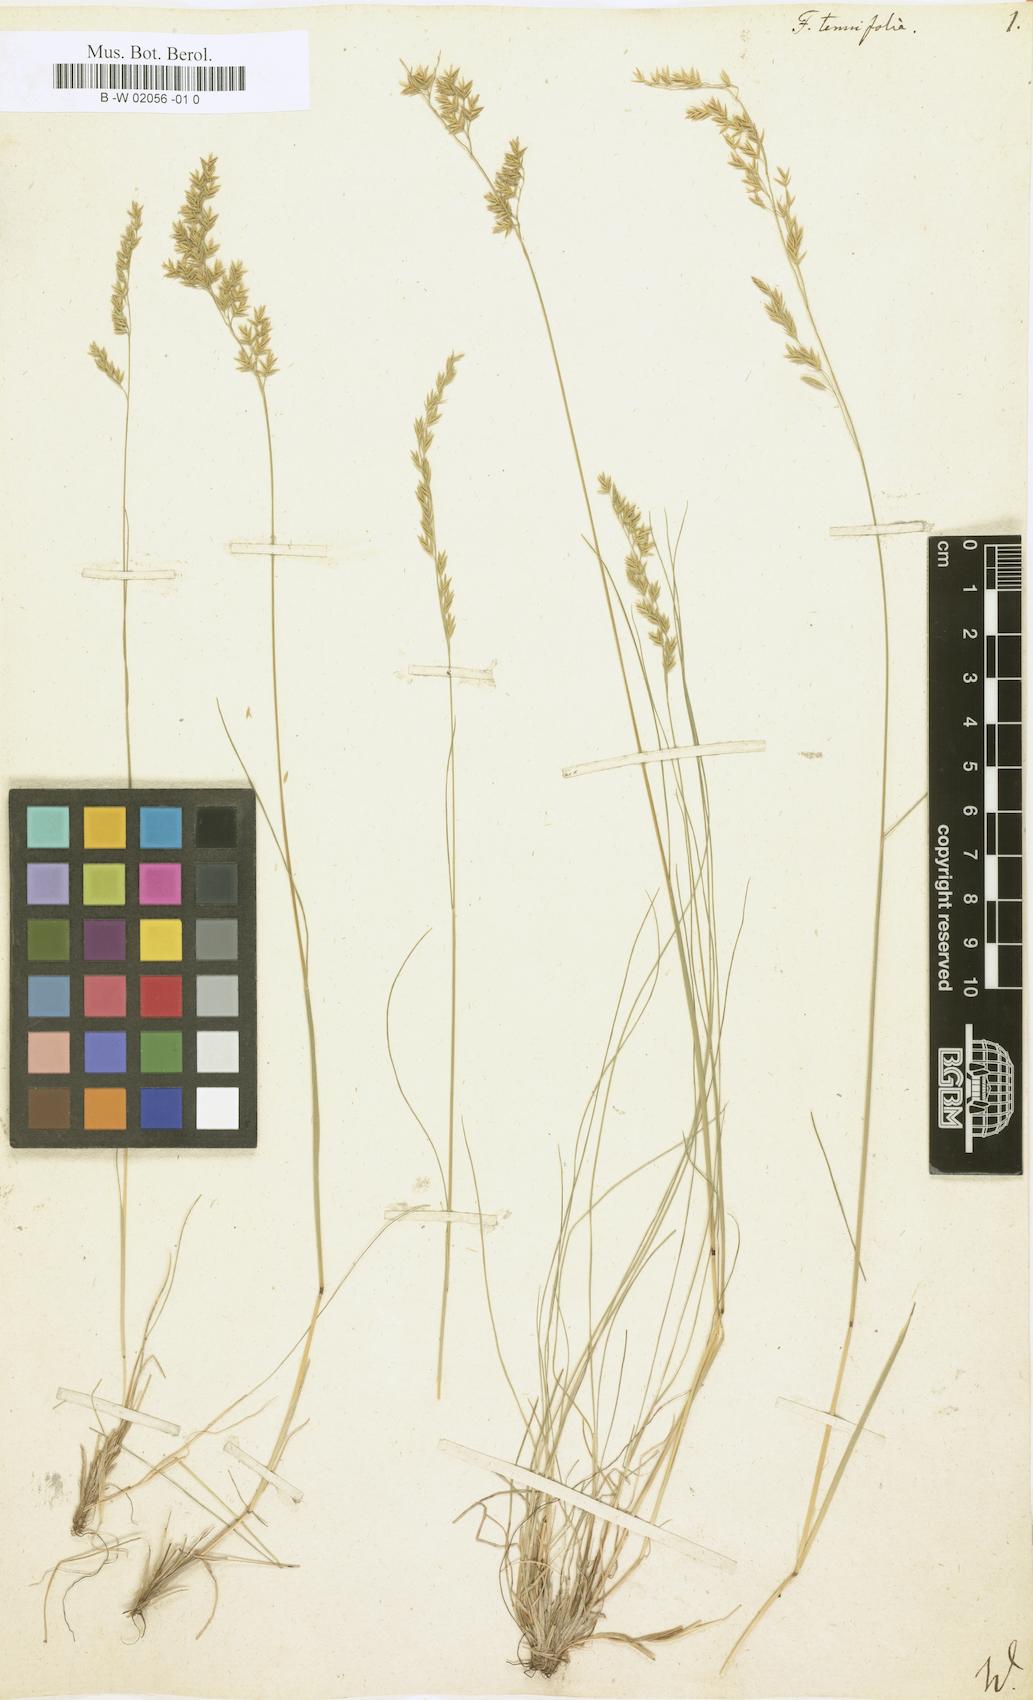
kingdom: Plantae
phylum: Tracheophyta
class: Liliopsida
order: Poales
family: Poaceae
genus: Festuca
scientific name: Festuca
